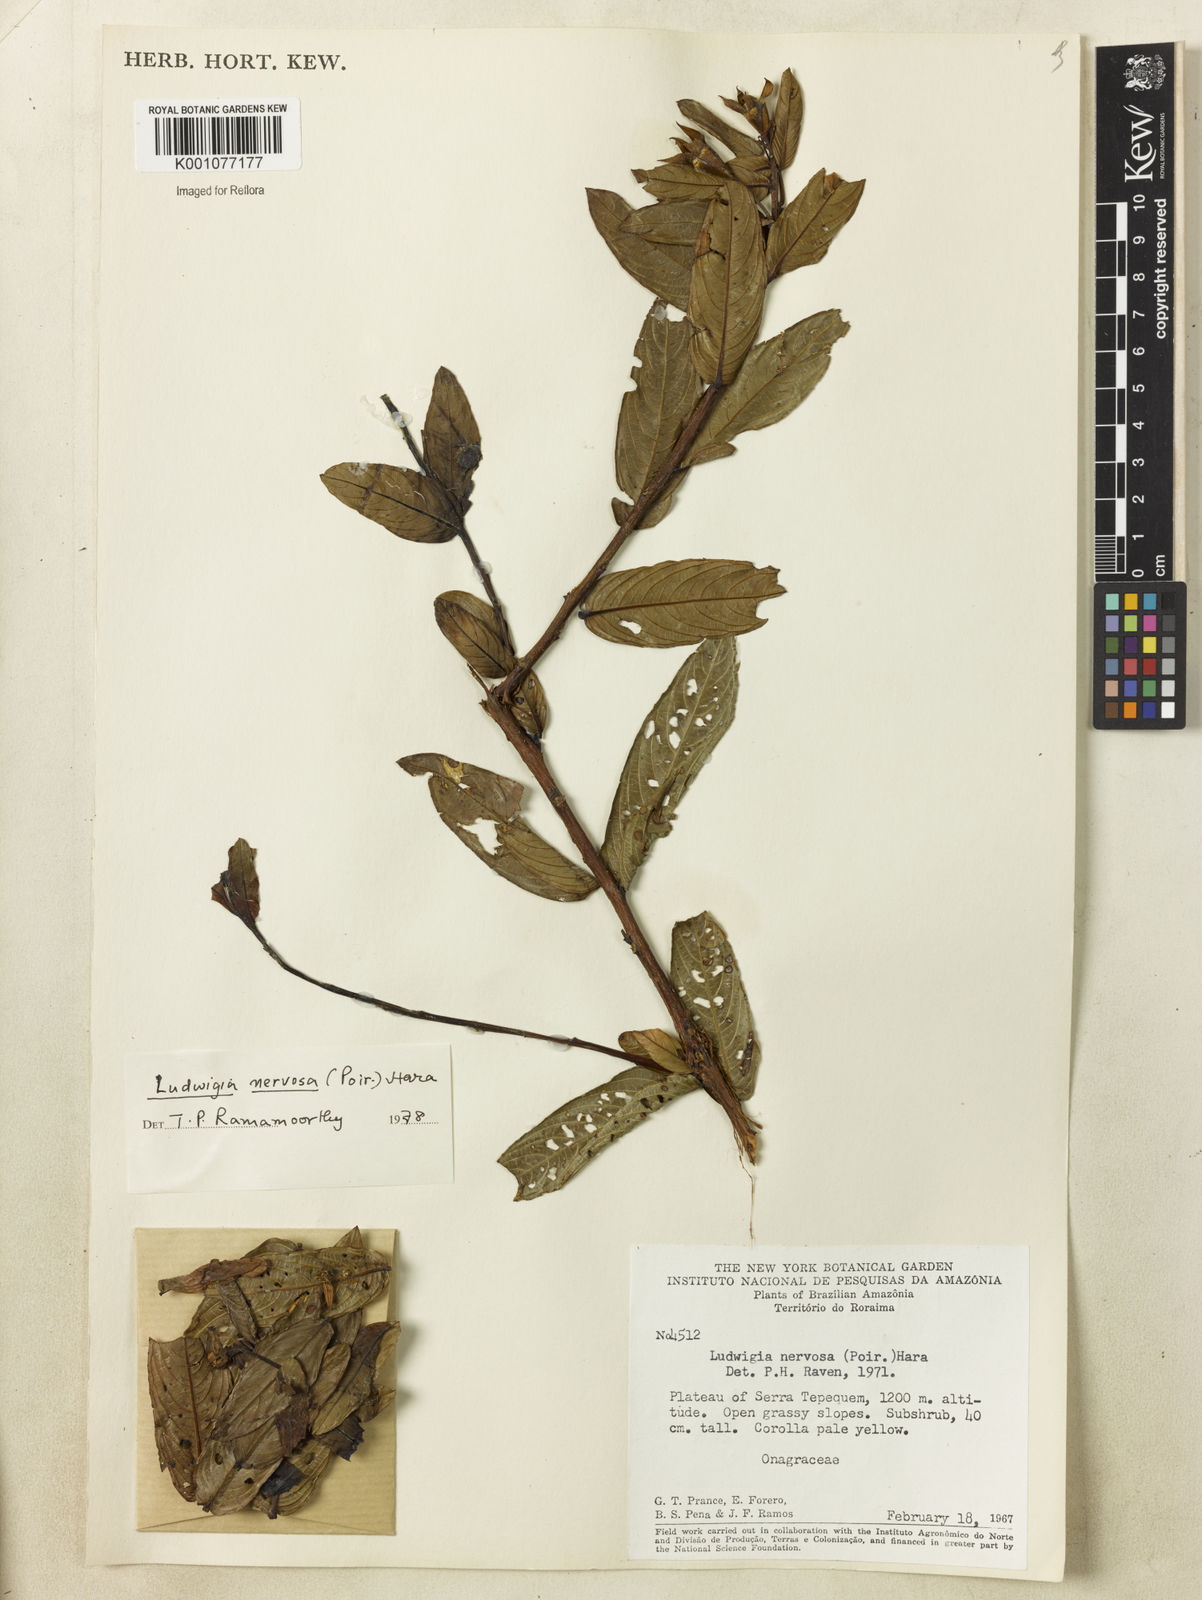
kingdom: Plantae
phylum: Tracheophyta
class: Magnoliopsida
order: Myrtales
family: Onagraceae
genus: Ludwigia
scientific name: Ludwigia nervosa
